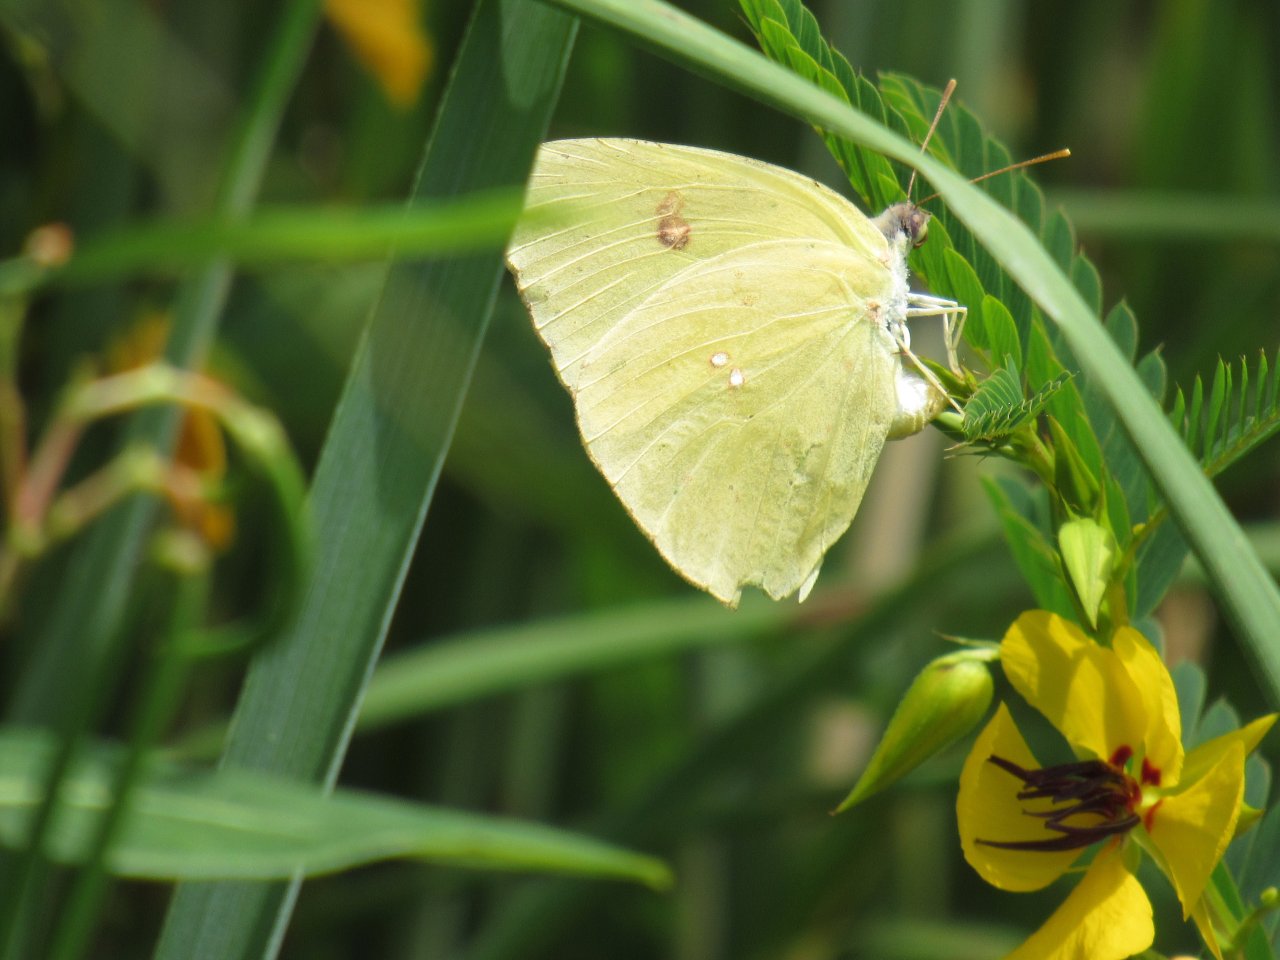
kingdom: Animalia
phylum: Arthropoda
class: Insecta
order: Lepidoptera
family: Pieridae
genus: Phoebis
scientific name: Phoebis sennae
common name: Cloudless Sulphur
